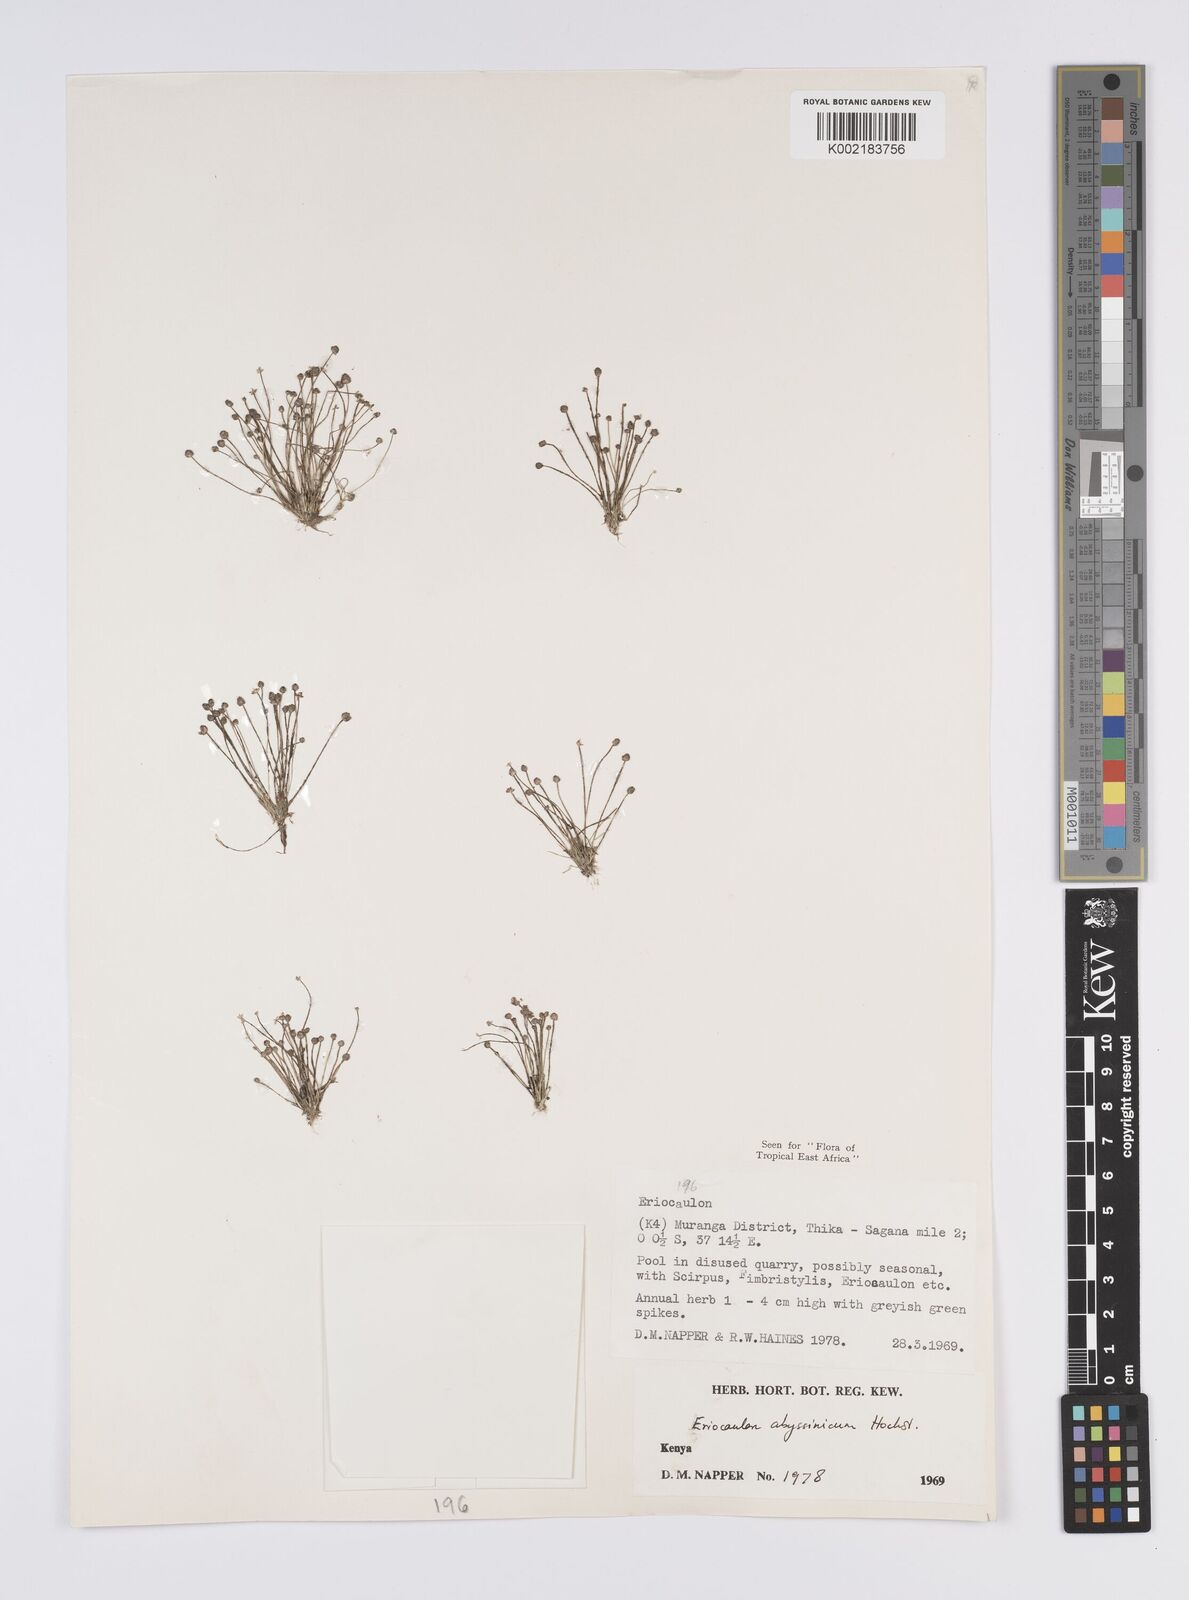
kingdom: Plantae
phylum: Tracheophyta
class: Liliopsida
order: Poales
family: Eriocaulaceae
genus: Eriocaulon
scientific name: Eriocaulon abyssinicum
